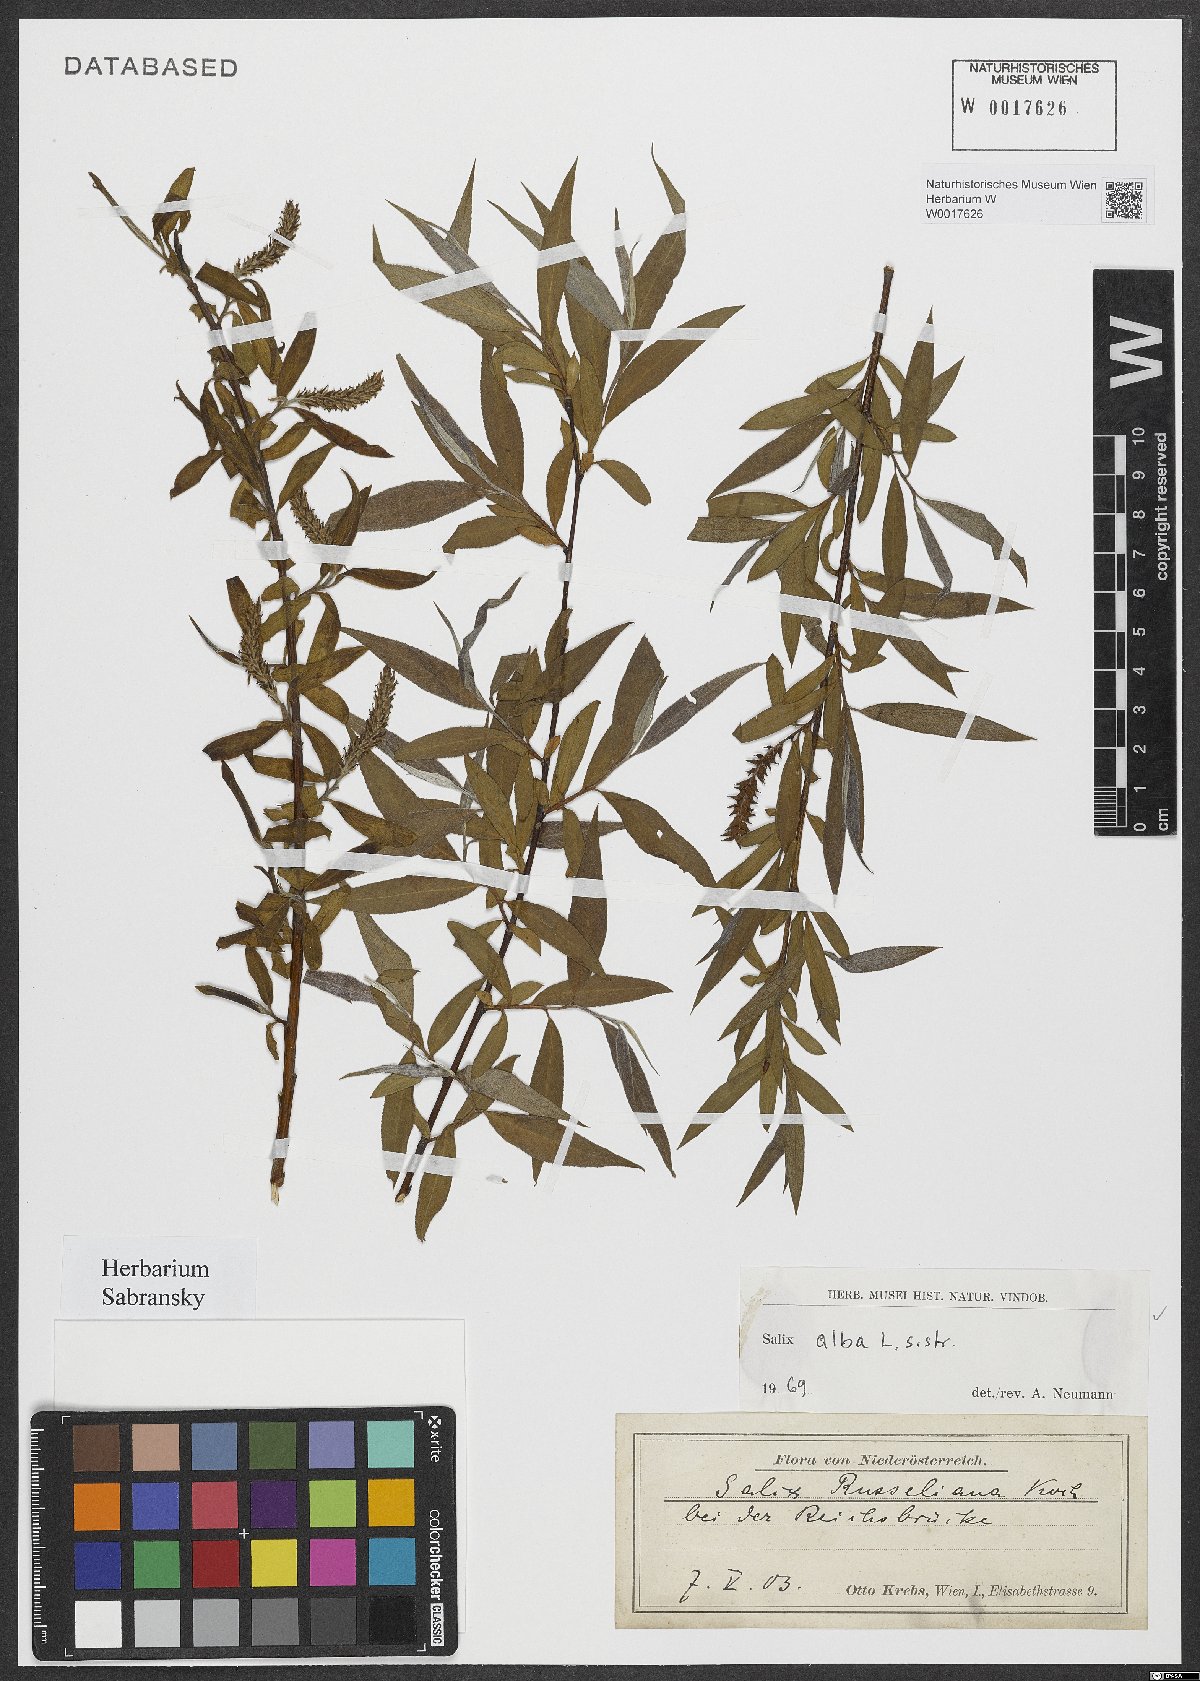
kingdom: Plantae
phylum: Tracheophyta
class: Magnoliopsida
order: Malpighiales
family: Salicaceae
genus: Salix
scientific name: Salix alba
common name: White willow
